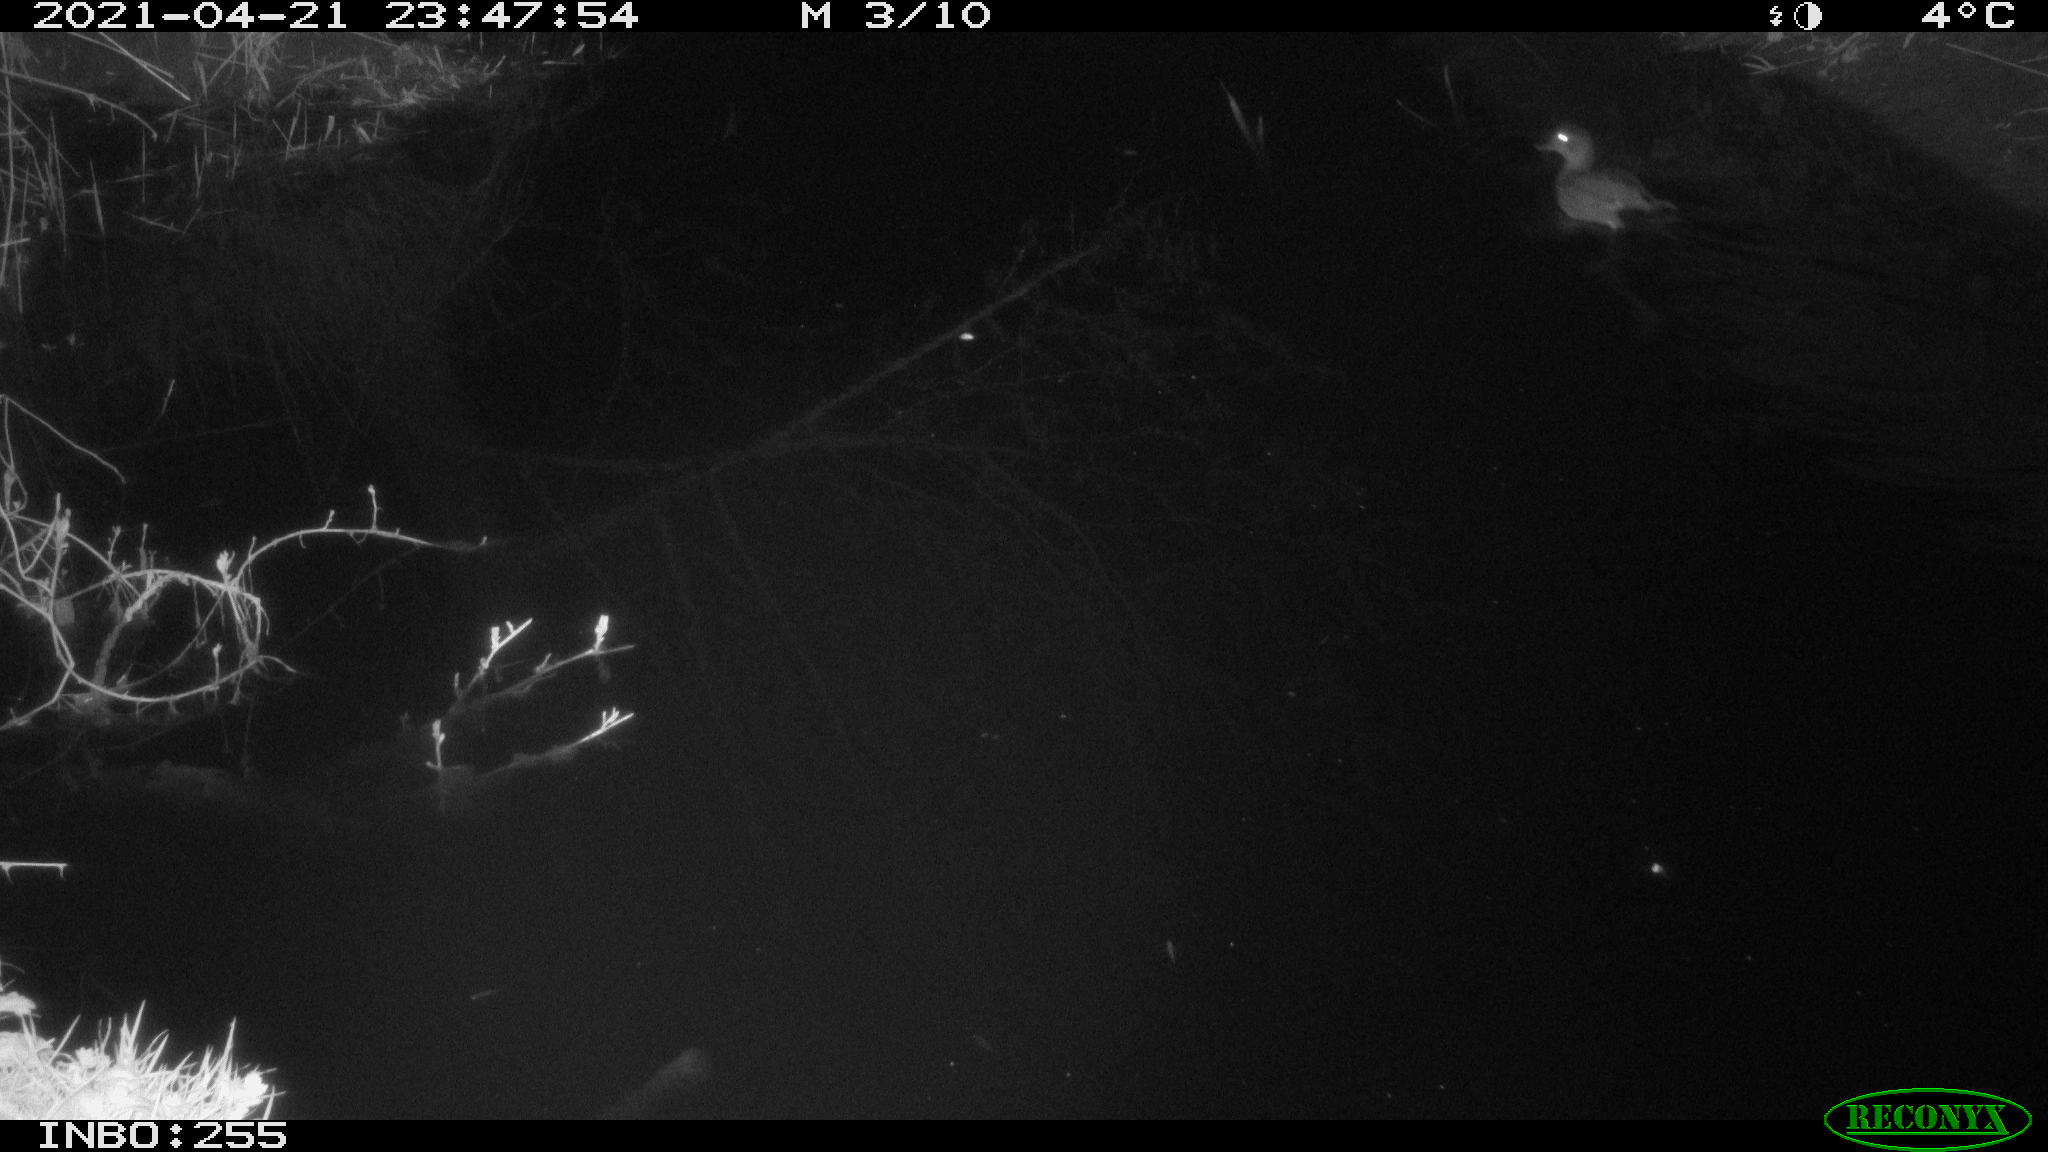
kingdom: Animalia
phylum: Chordata
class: Aves
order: Anseriformes
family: Anatidae
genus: Mareca
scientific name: Mareca strepera
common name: Gadwall
